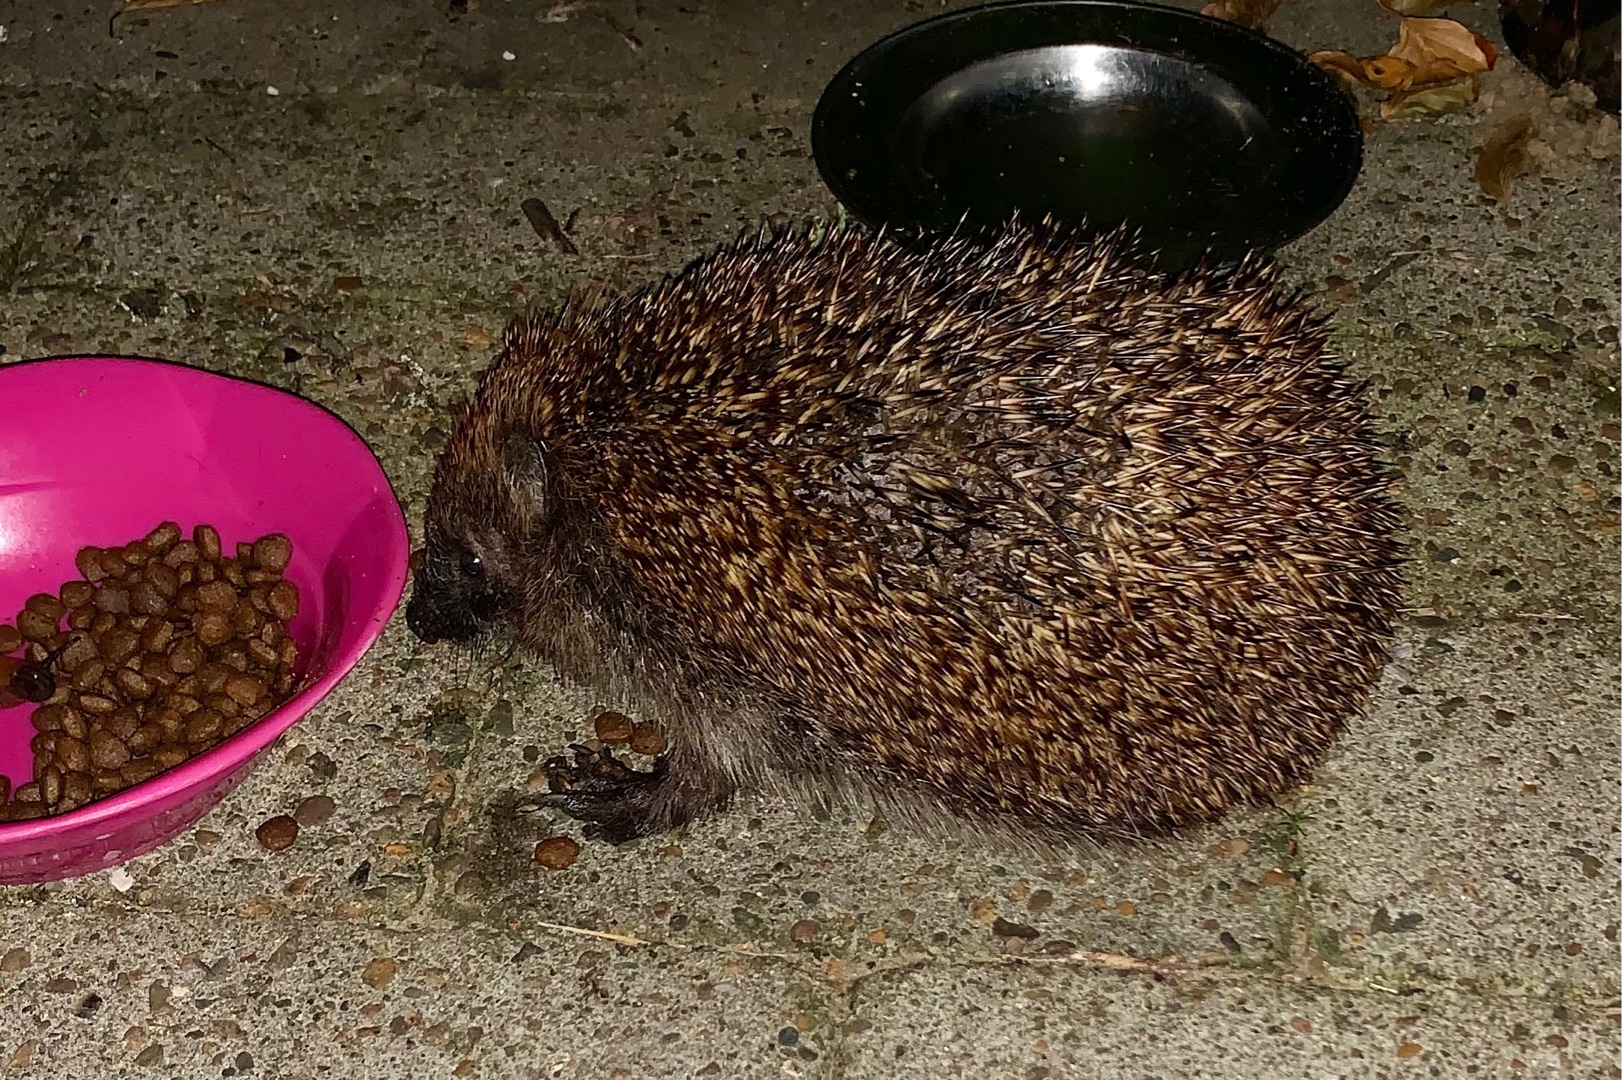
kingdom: Animalia
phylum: Chordata
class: Mammalia
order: Erinaceomorpha
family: Erinaceidae
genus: Erinaceus
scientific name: Erinaceus europaeus
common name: Pindsvin
